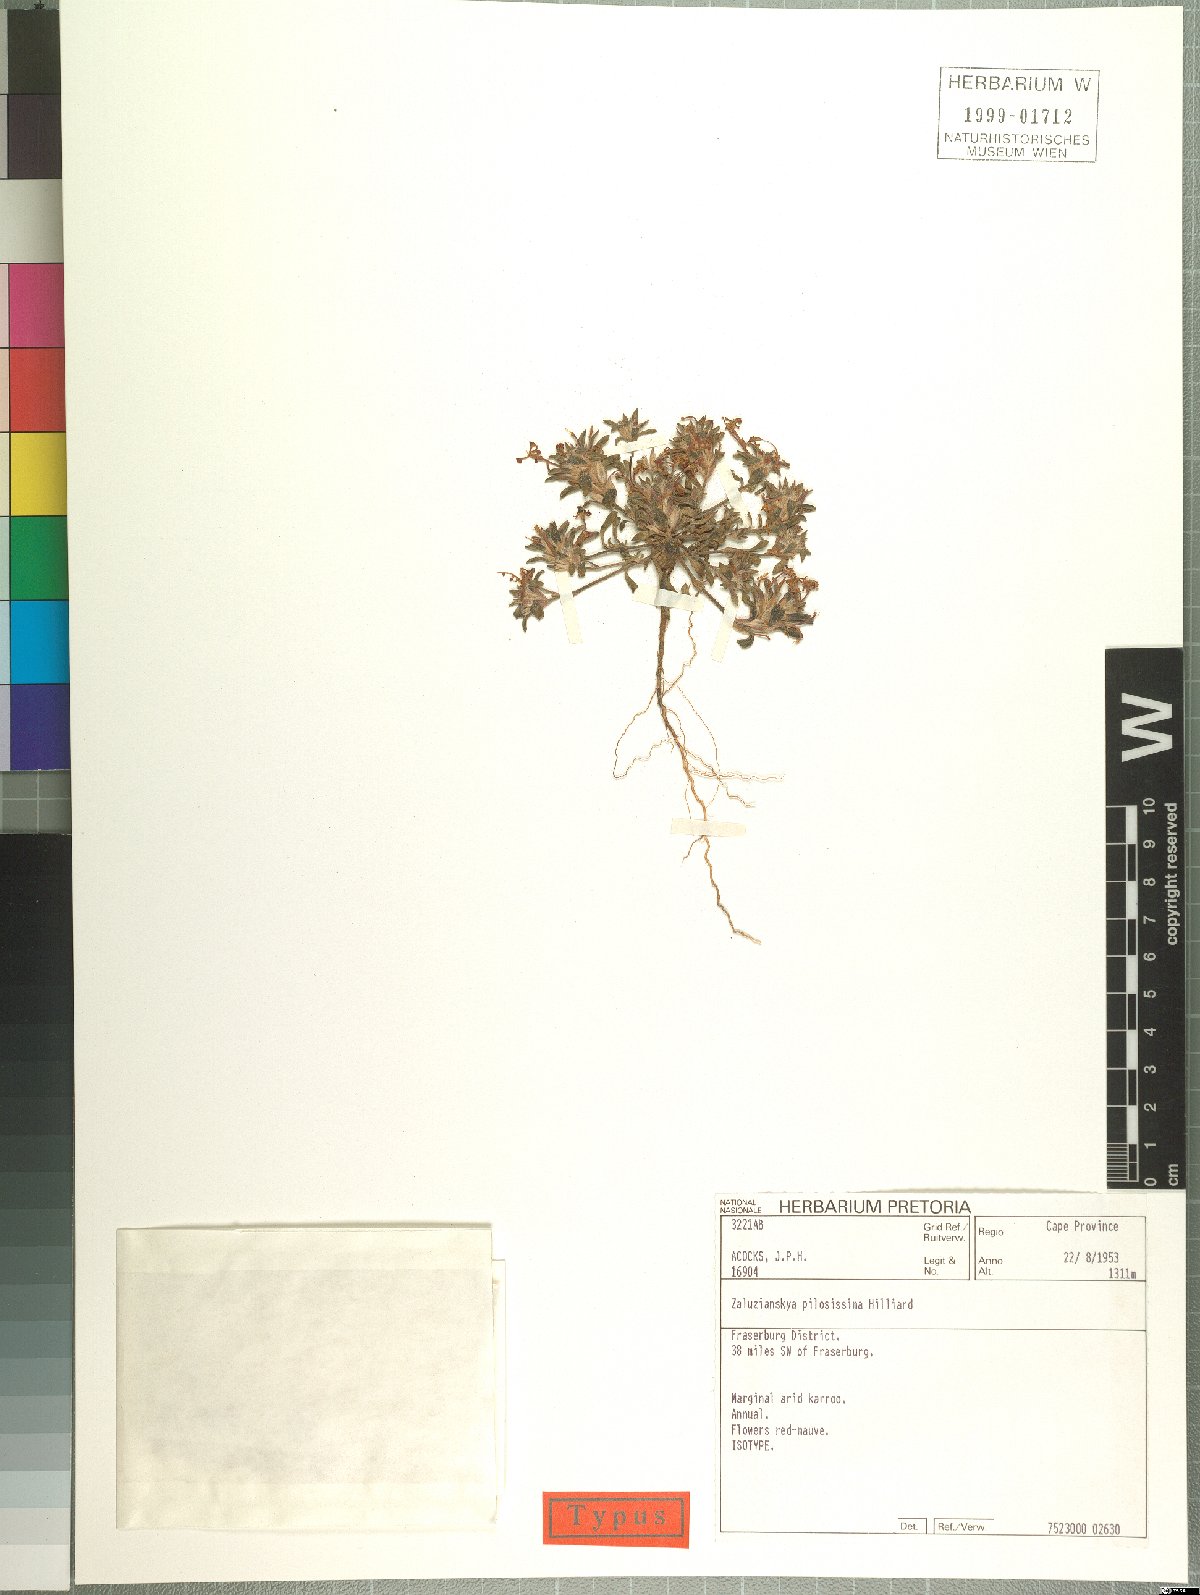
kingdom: Plantae
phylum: Tracheophyta
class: Magnoliopsida
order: Lamiales
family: Scrophulariaceae
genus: Zaluzianskya
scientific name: Zaluzianskya pilosissima
